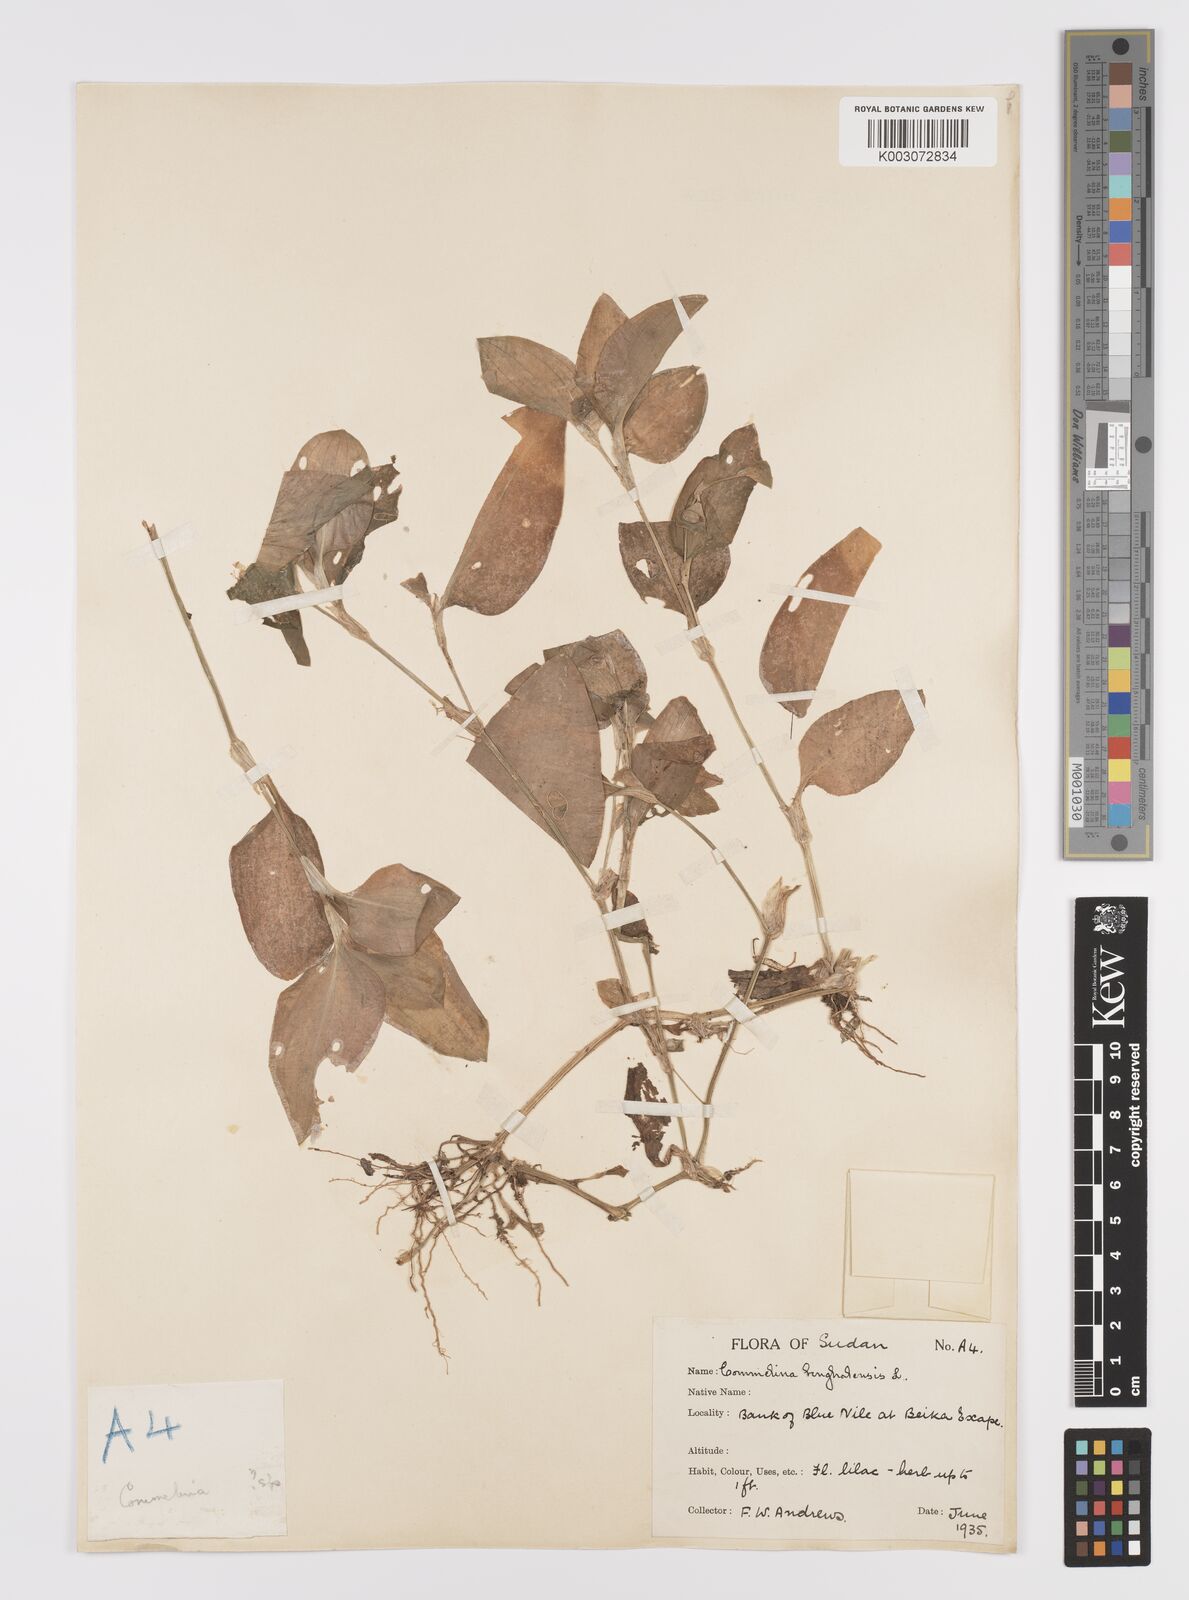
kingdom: Plantae
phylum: Tracheophyta
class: Liliopsida
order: Commelinales
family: Commelinaceae
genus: Commelina
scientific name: Commelina benghalensis
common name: Jio
